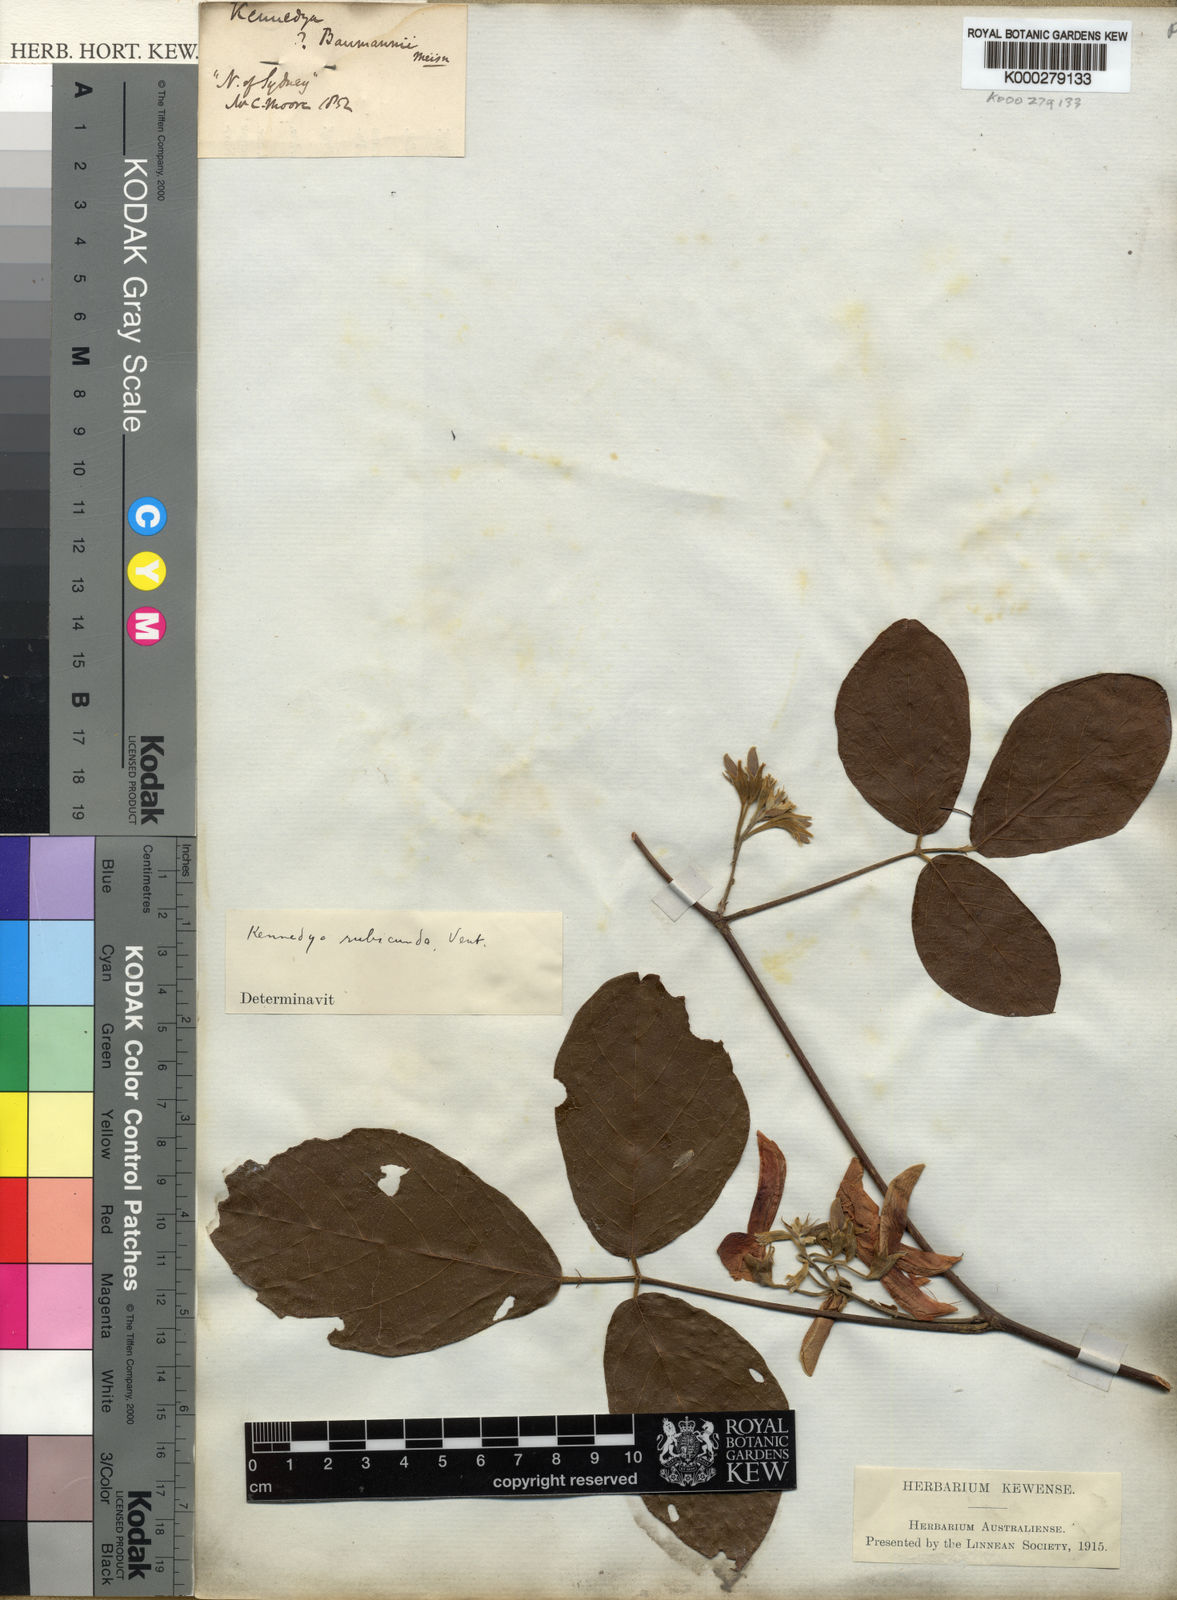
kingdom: Plantae
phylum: Tracheophyta
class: Magnoliopsida
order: Fabales
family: Fabaceae
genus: Kennedia
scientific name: Kennedia rubicunda
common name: Red kennedy-pea
